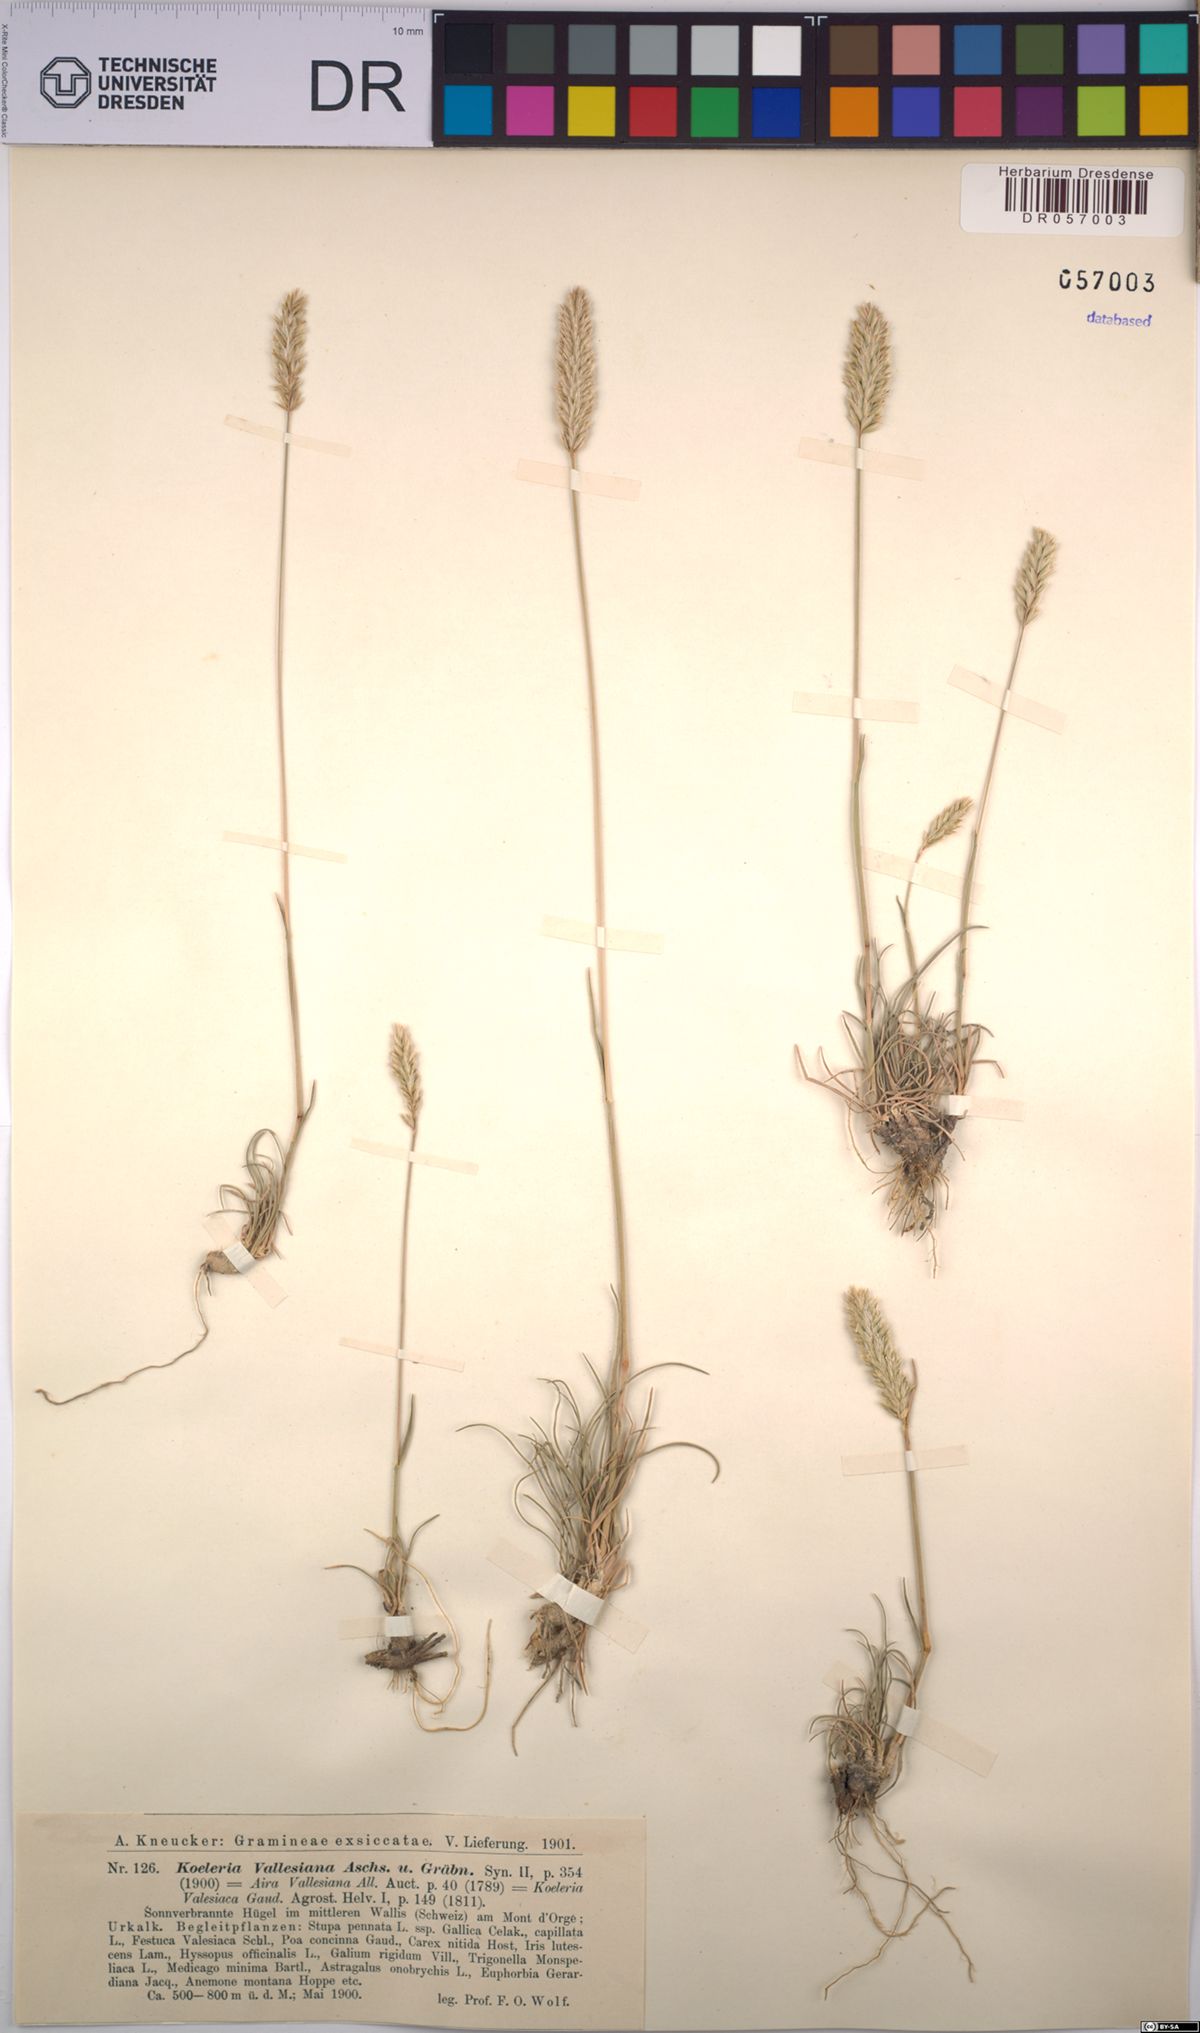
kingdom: Plantae
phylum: Tracheophyta
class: Liliopsida
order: Poales
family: Poaceae
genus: Koeleria
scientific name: Koeleria vallesiana
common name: Somerset hair-grass
